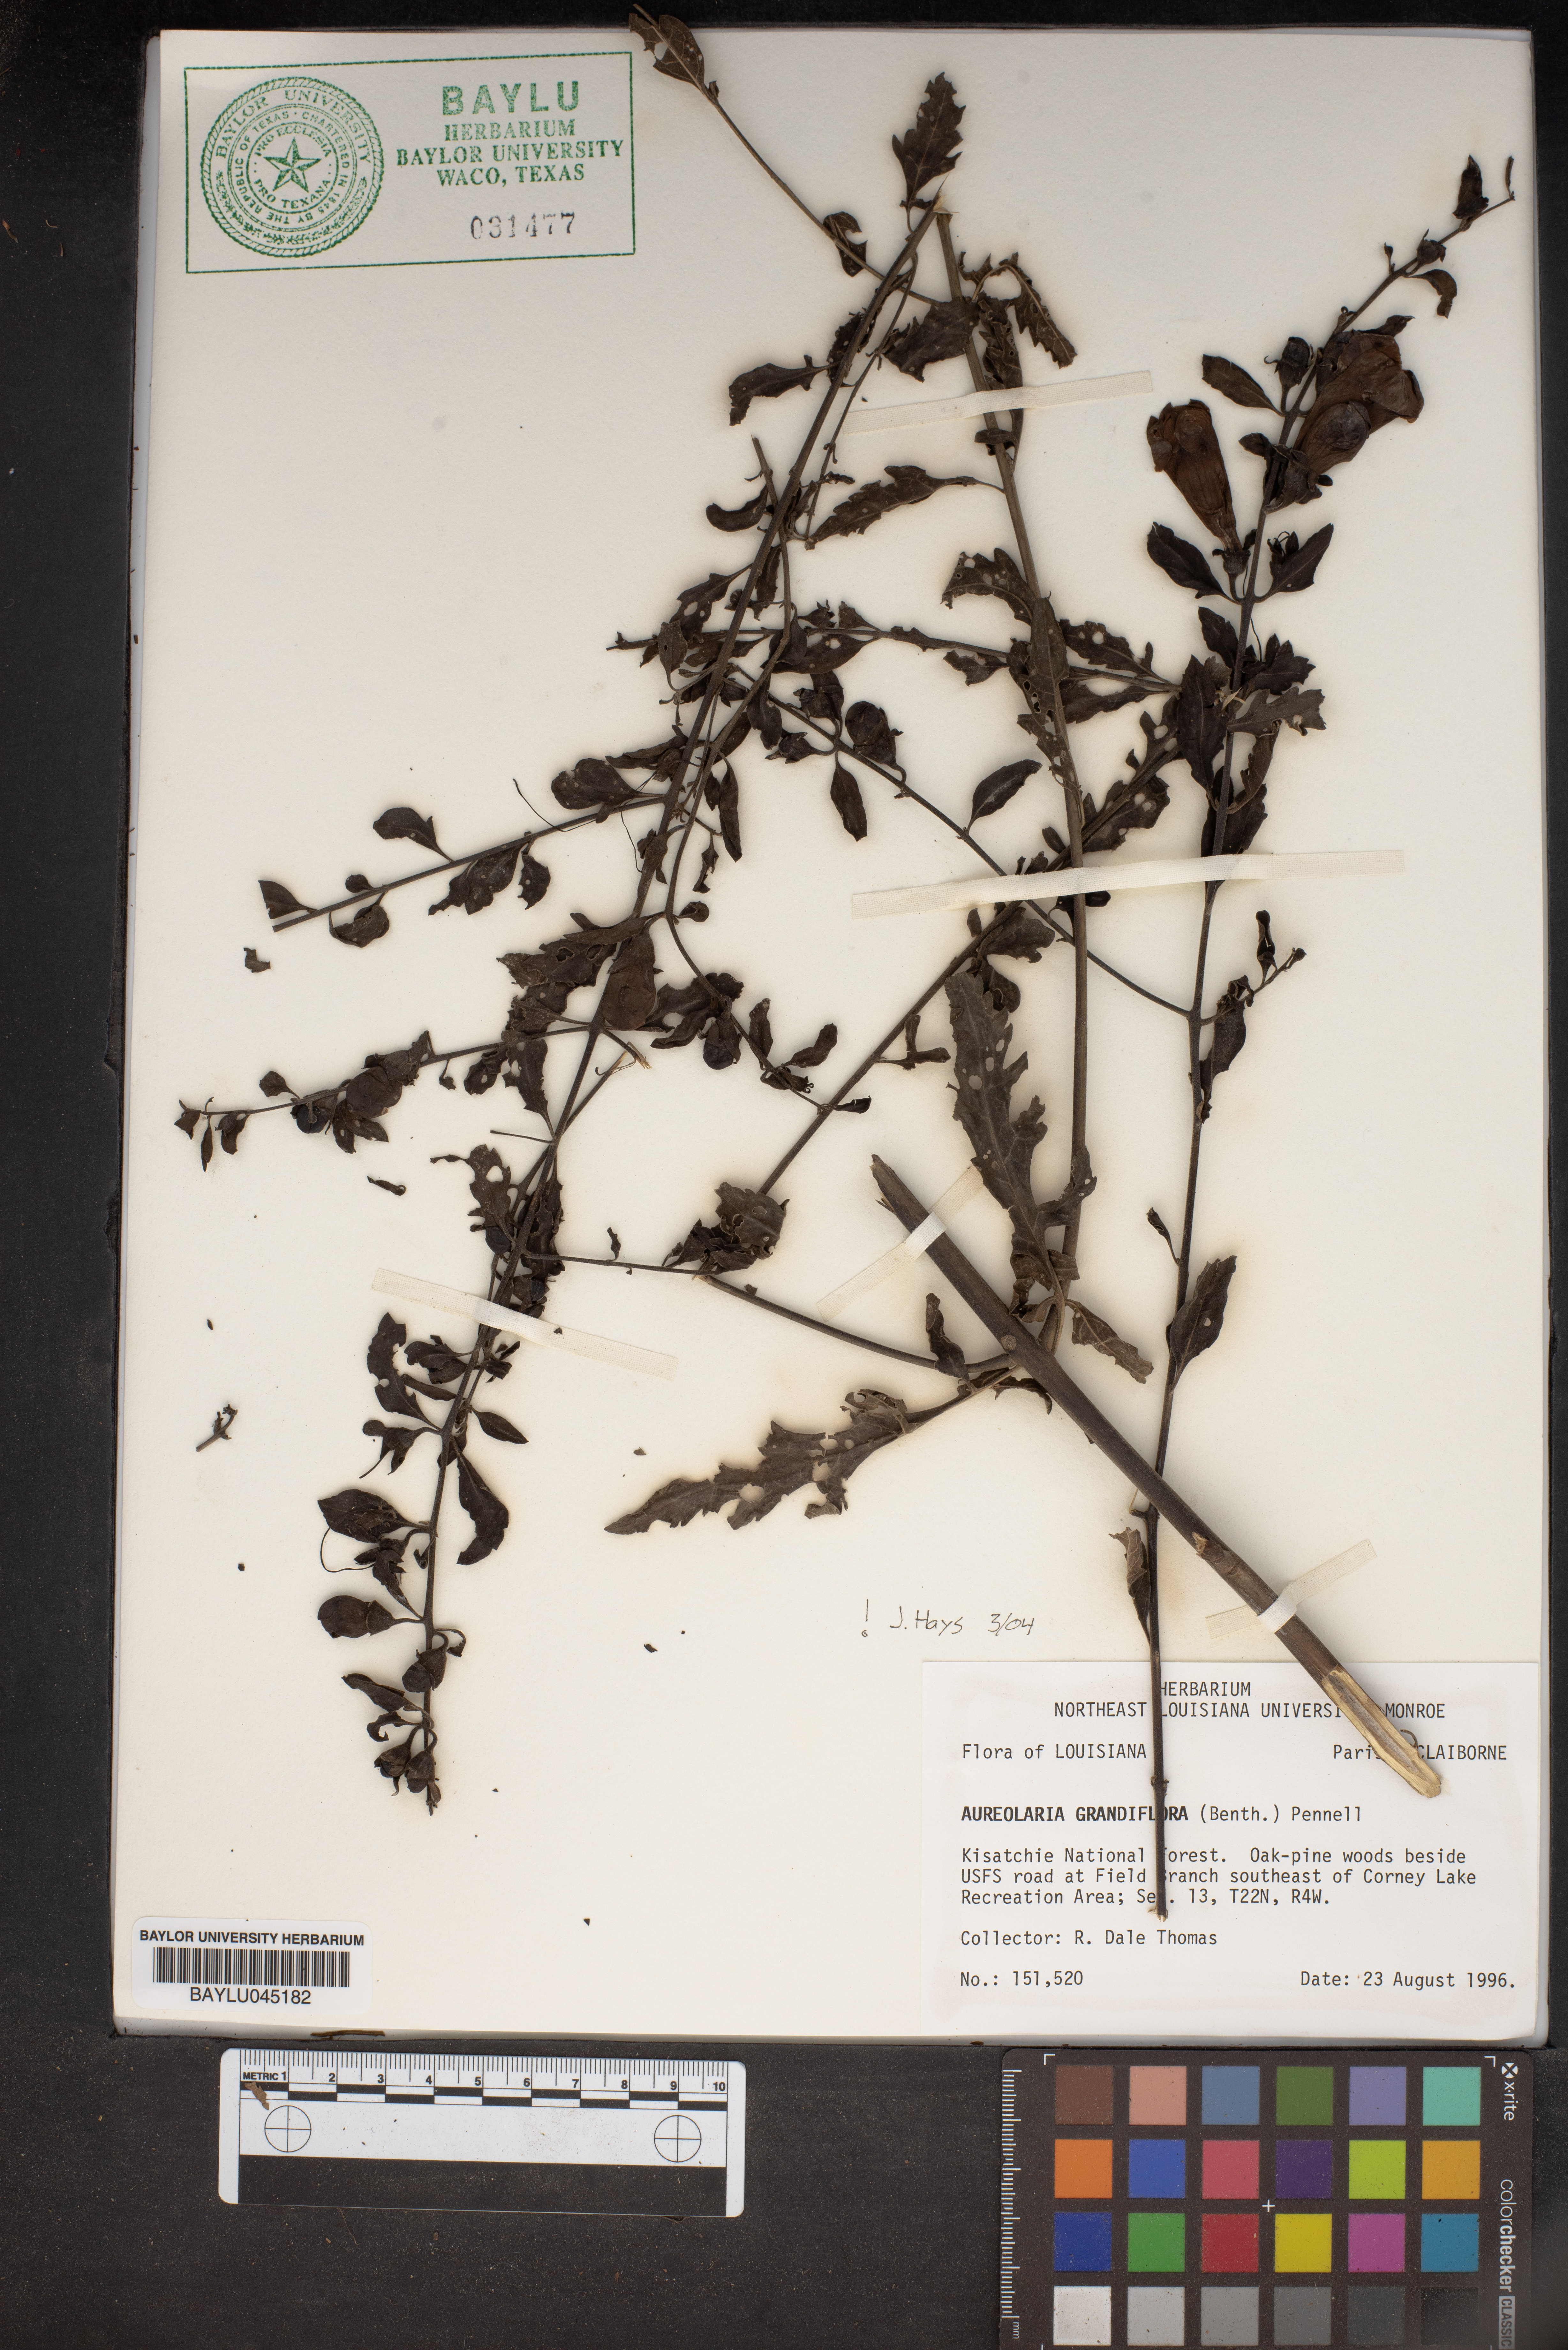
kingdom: Plantae
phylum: Tracheophyta
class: Magnoliopsida
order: Lamiales
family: Orobanchaceae
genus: Aureolaria
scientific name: Aureolaria grandiflora
